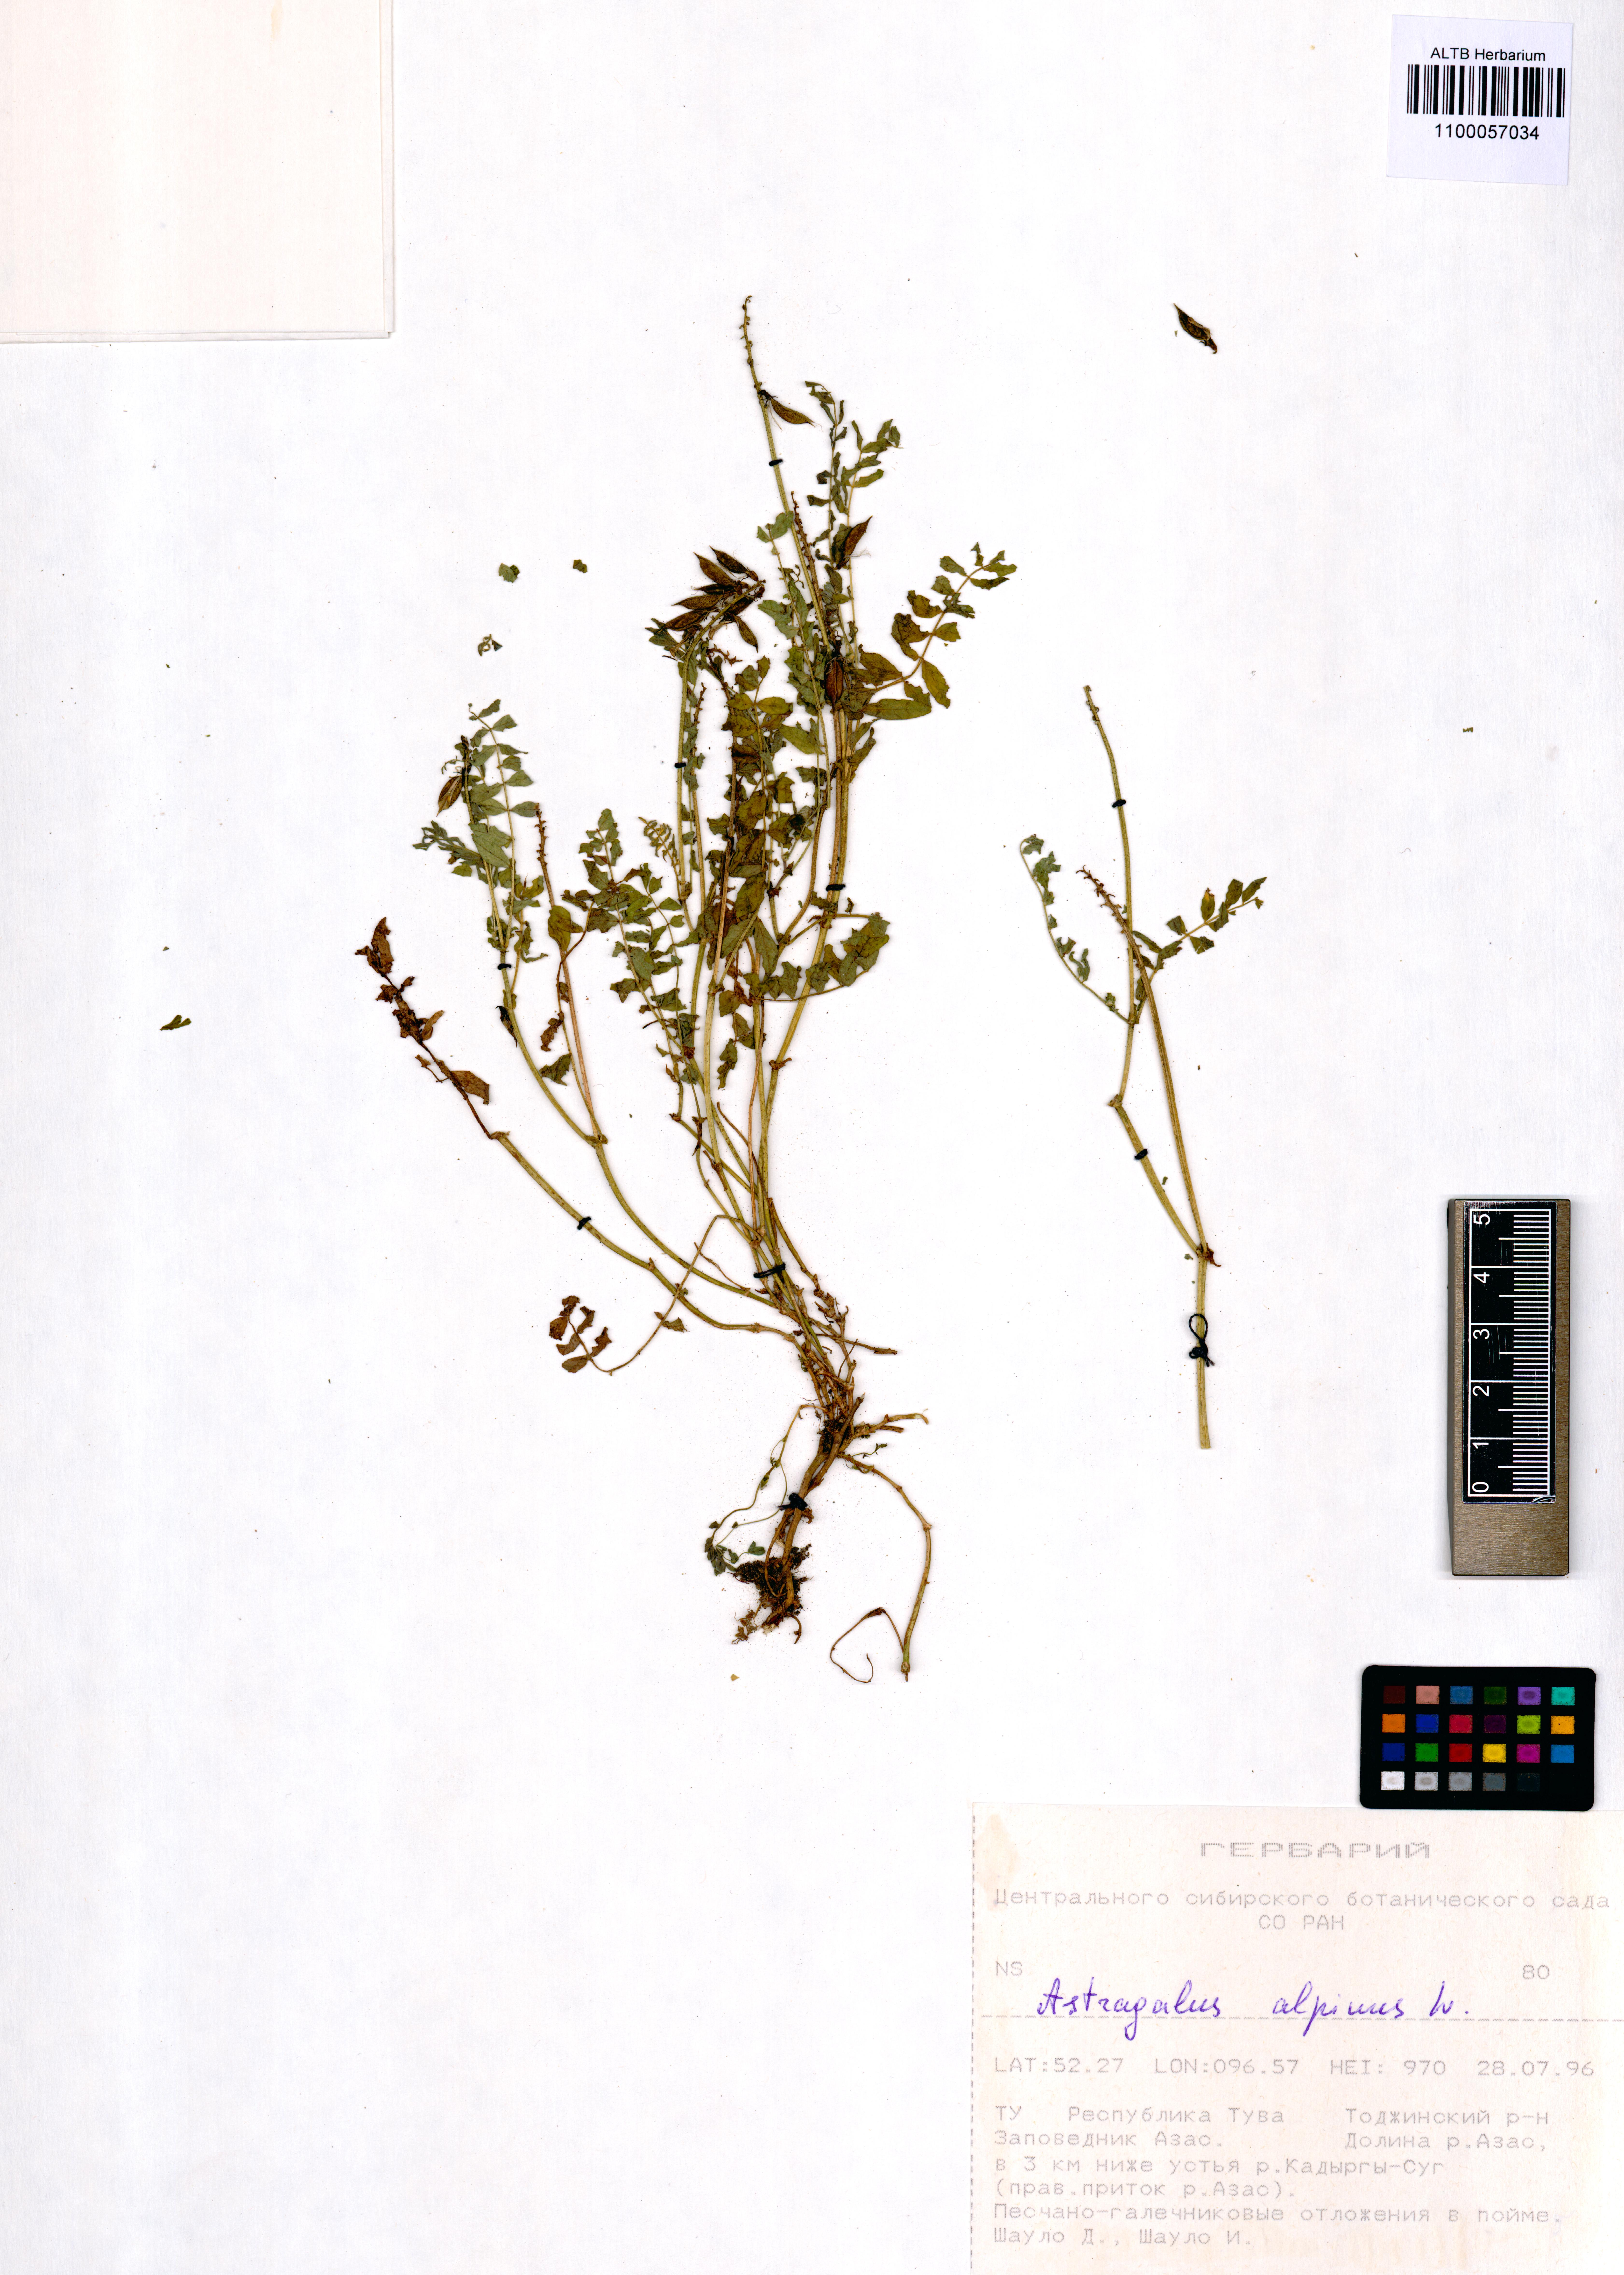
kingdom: Plantae
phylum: Tracheophyta
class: Magnoliopsida
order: Fabales
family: Fabaceae
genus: Astragalus
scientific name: Astragalus alpinus
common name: Alpine milk-vetch
